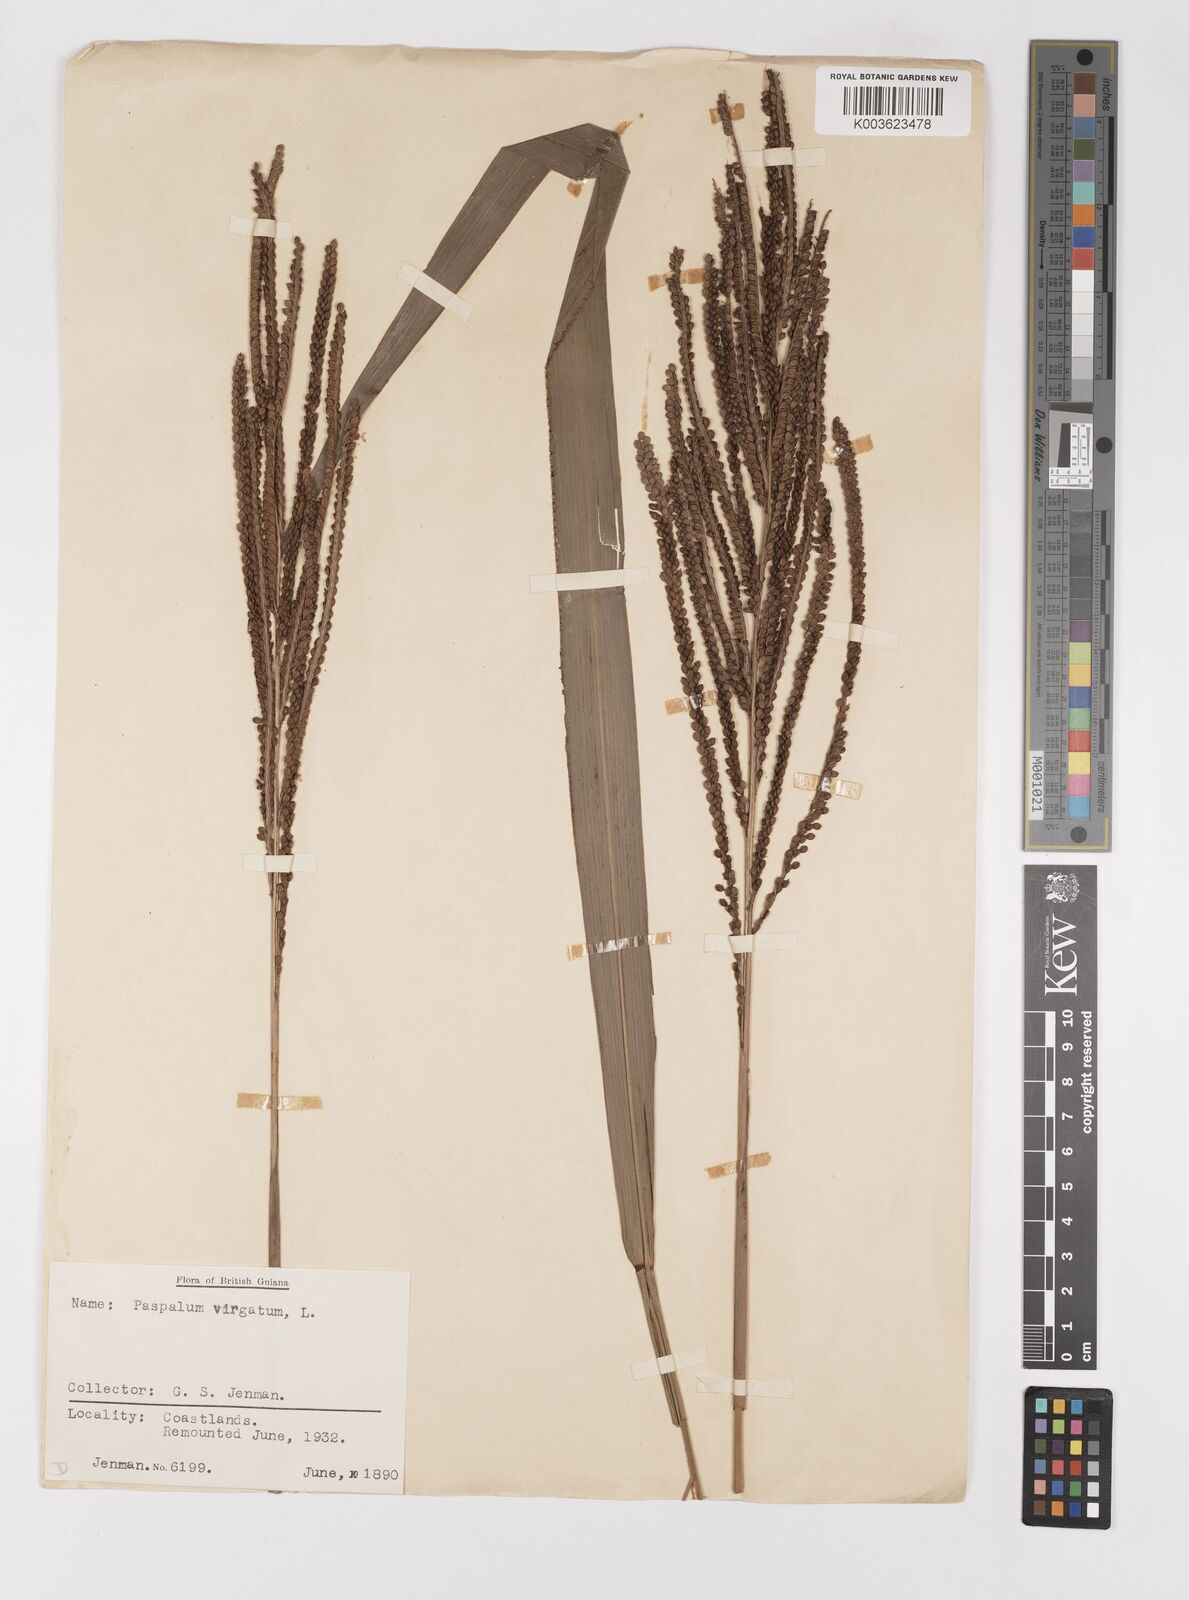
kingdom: Plantae
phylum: Tracheophyta
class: Liliopsida
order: Poales
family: Poaceae
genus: Paspalum
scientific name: Paspalum virgatum
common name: Talquezal
